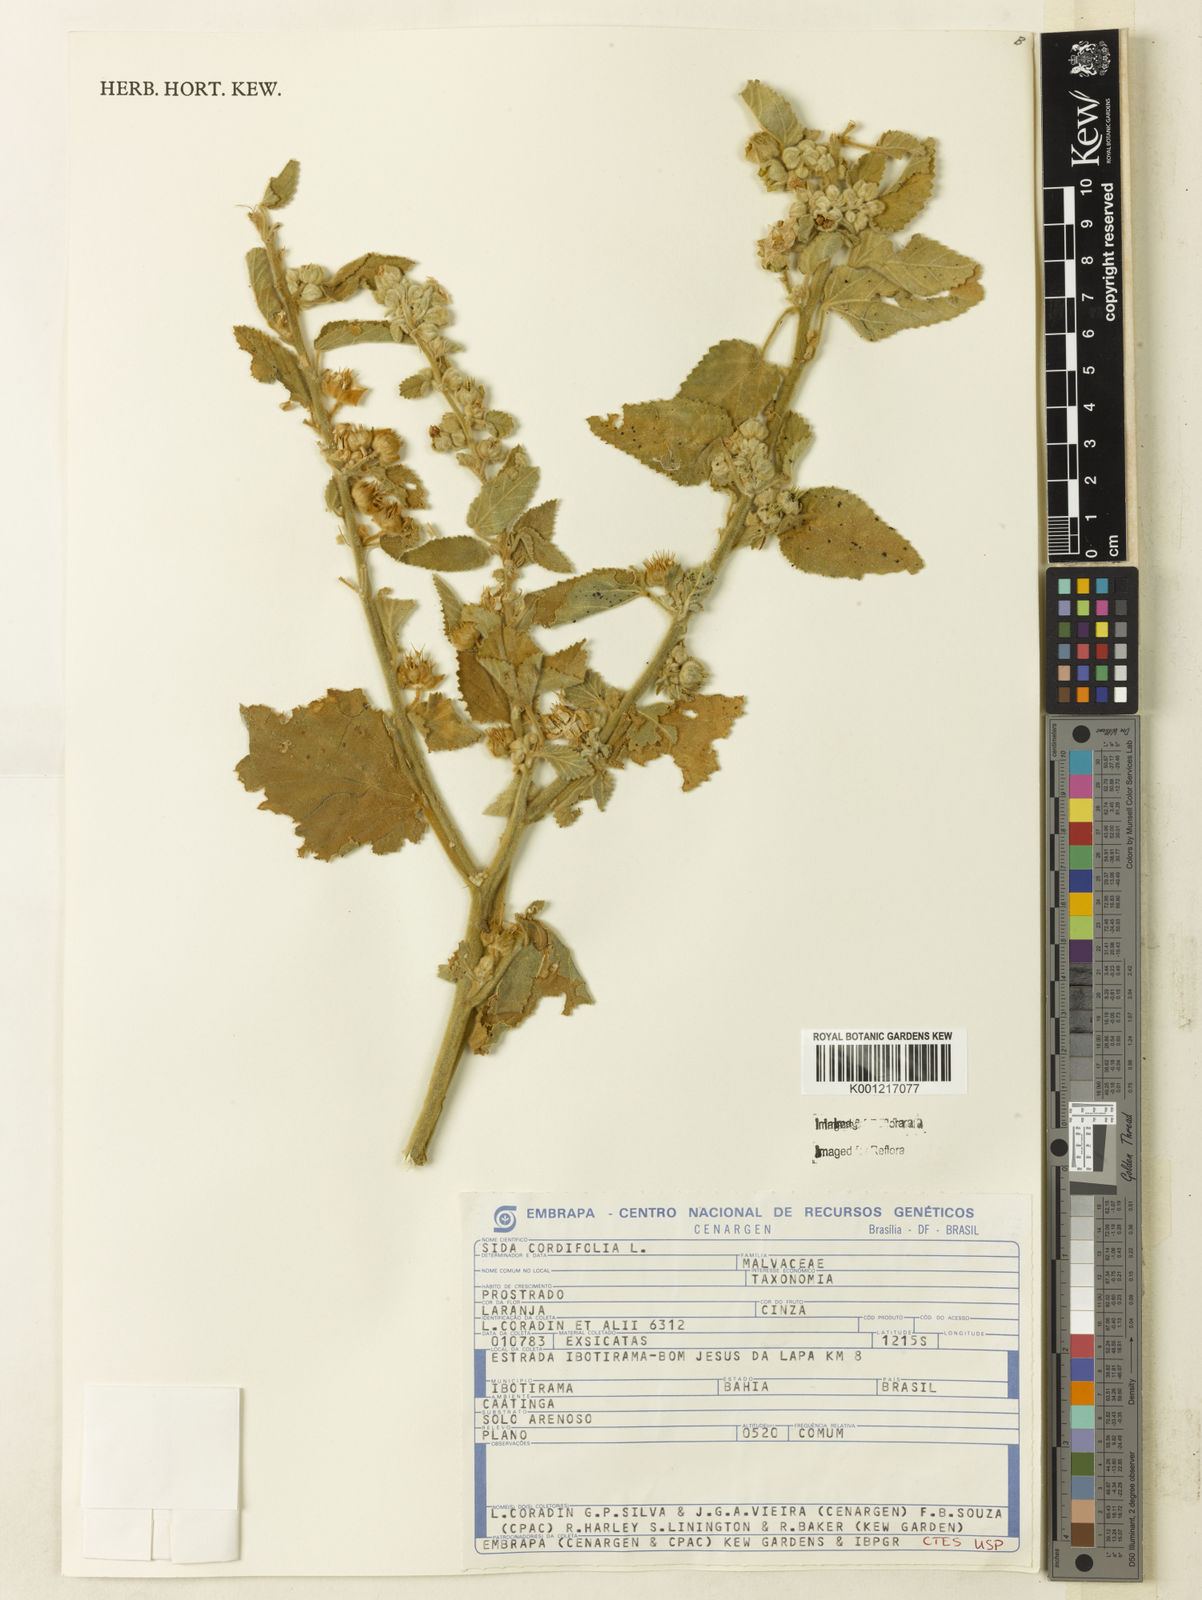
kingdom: Plantae
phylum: Tracheophyta
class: Magnoliopsida
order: Malvales
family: Malvaceae
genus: Sida
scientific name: Sida cordifolia
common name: Ilima
